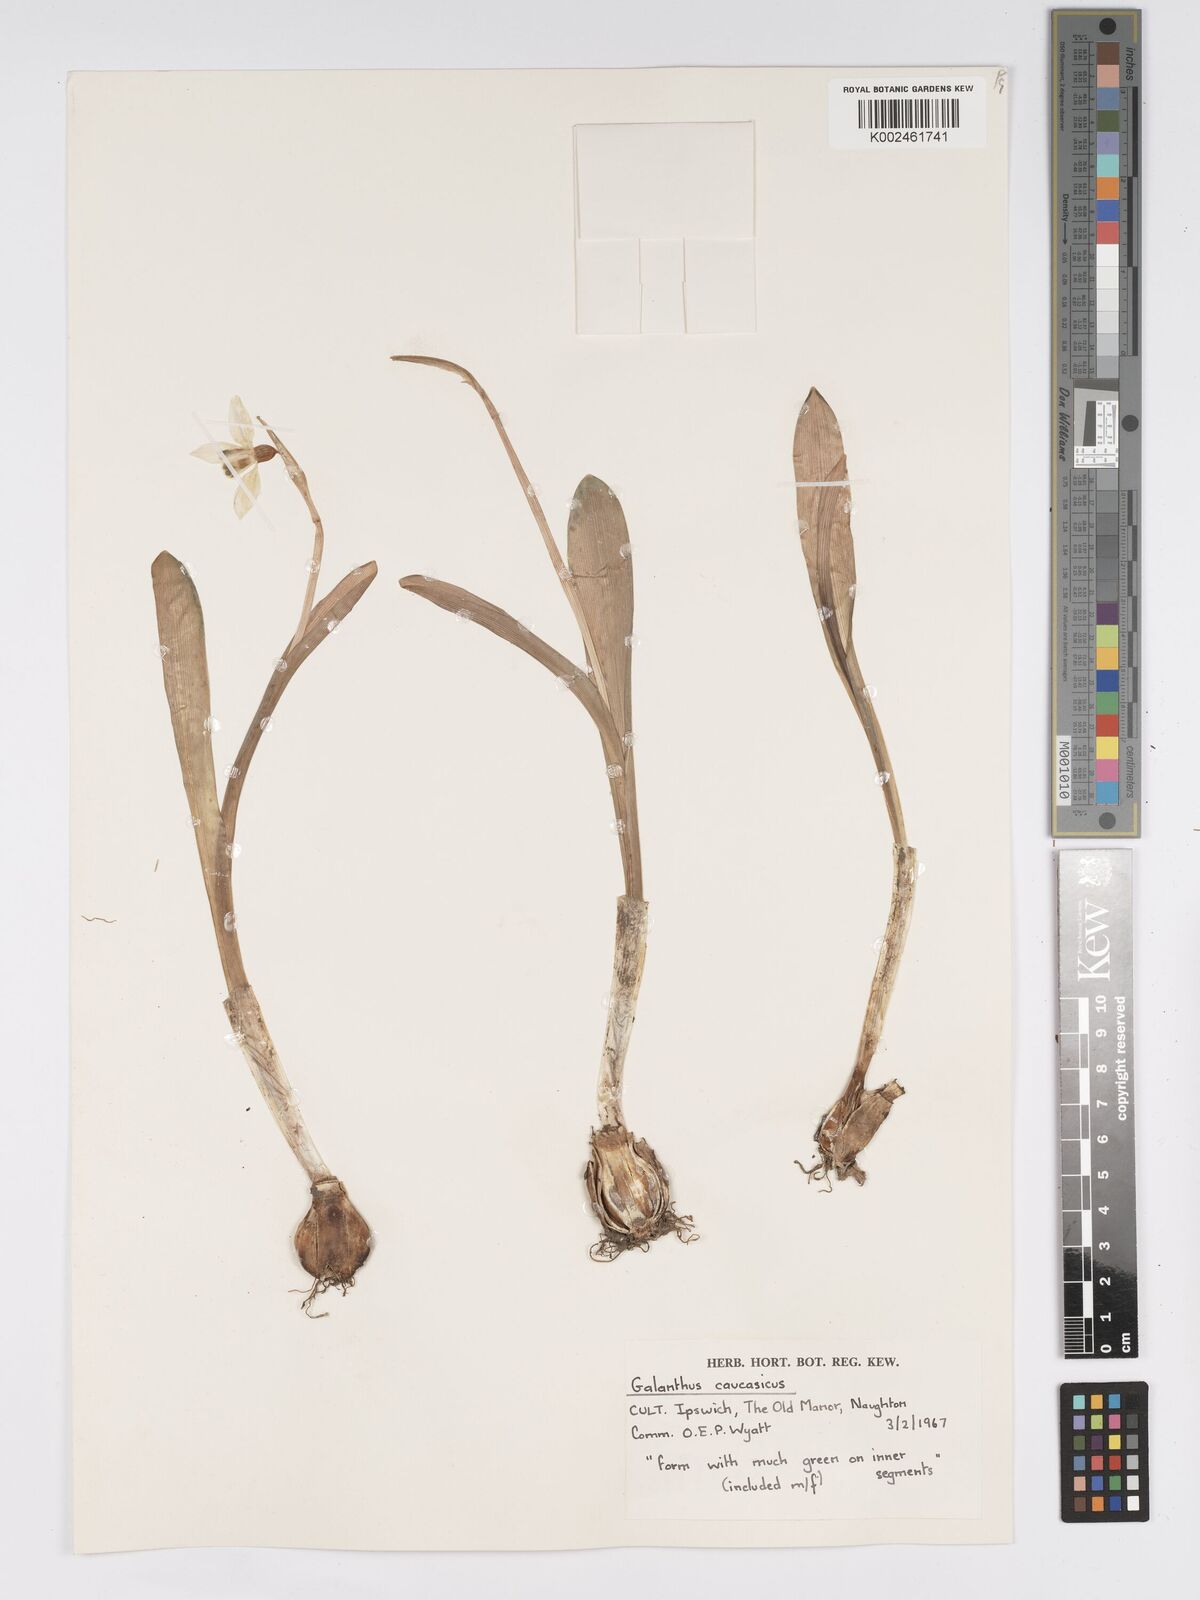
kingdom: Plantae
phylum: Tracheophyta
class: Liliopsida
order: Asparagales
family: Amaryllidaceae
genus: Galanthus
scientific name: Galanthus alpinus
